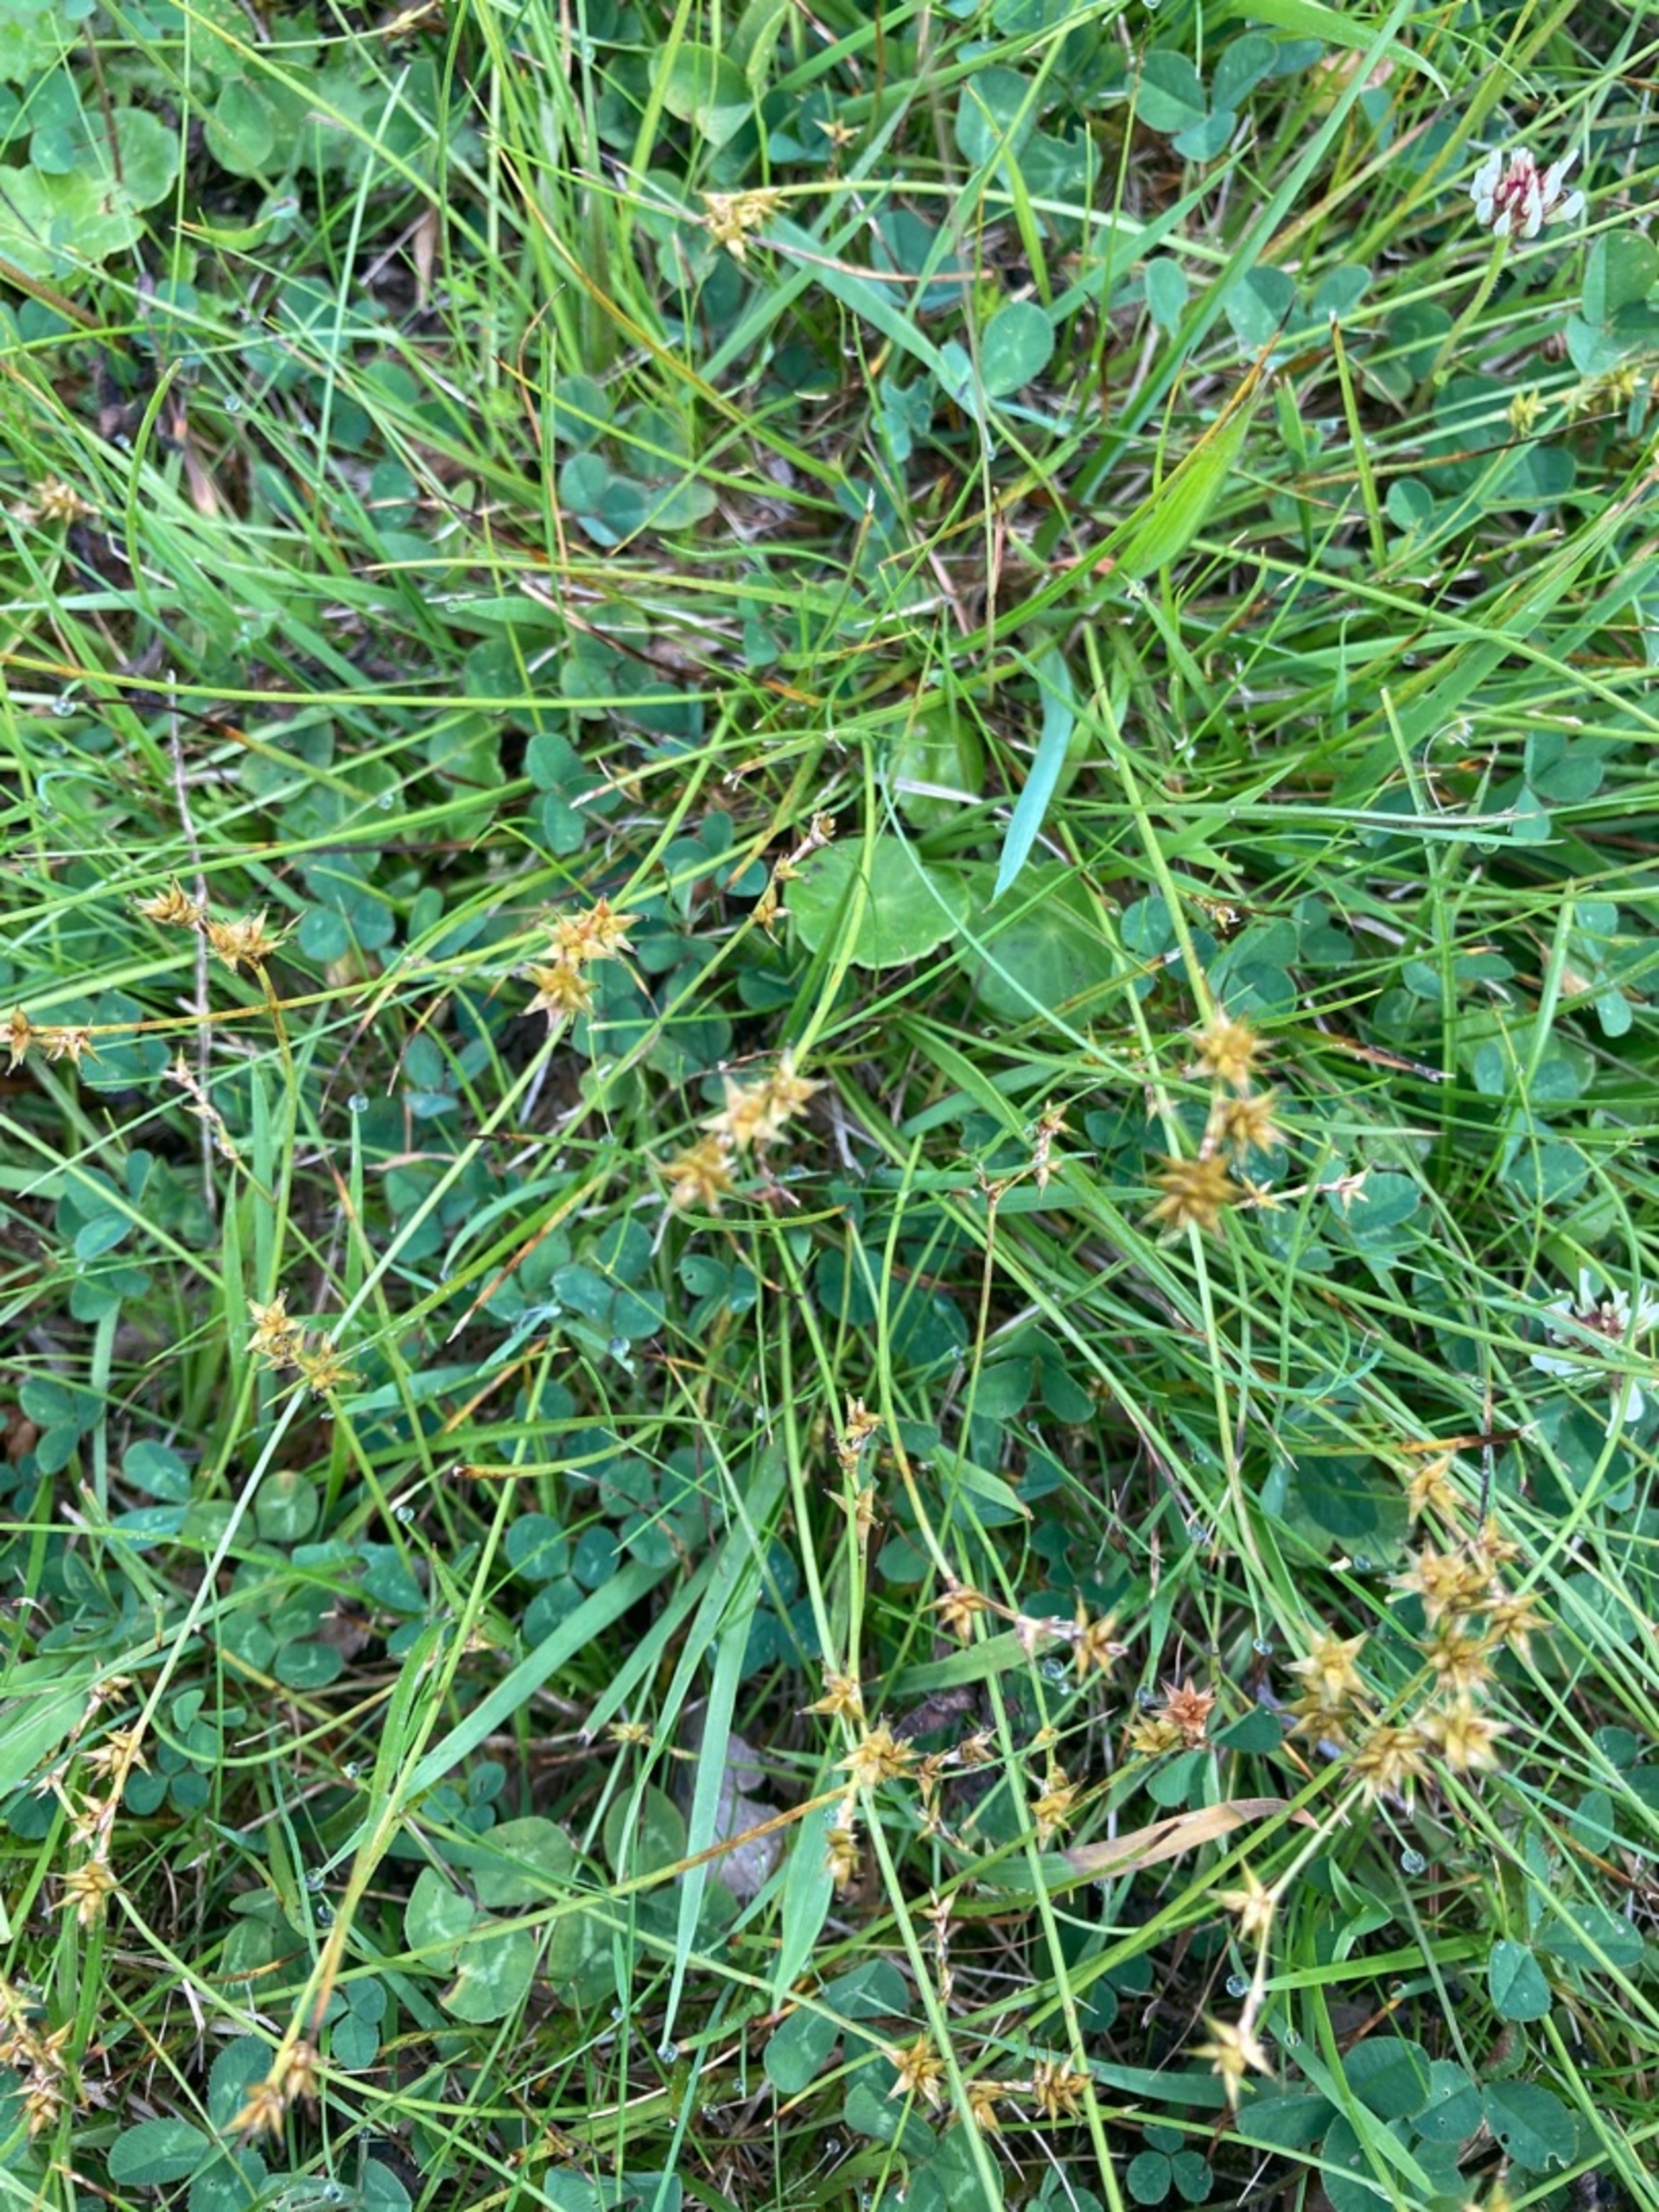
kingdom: Plantae
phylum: Tracheophyta
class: Liliopsida
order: Poales
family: Cyperaceae
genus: Carex
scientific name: Carex echinata
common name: Stjerne-star
